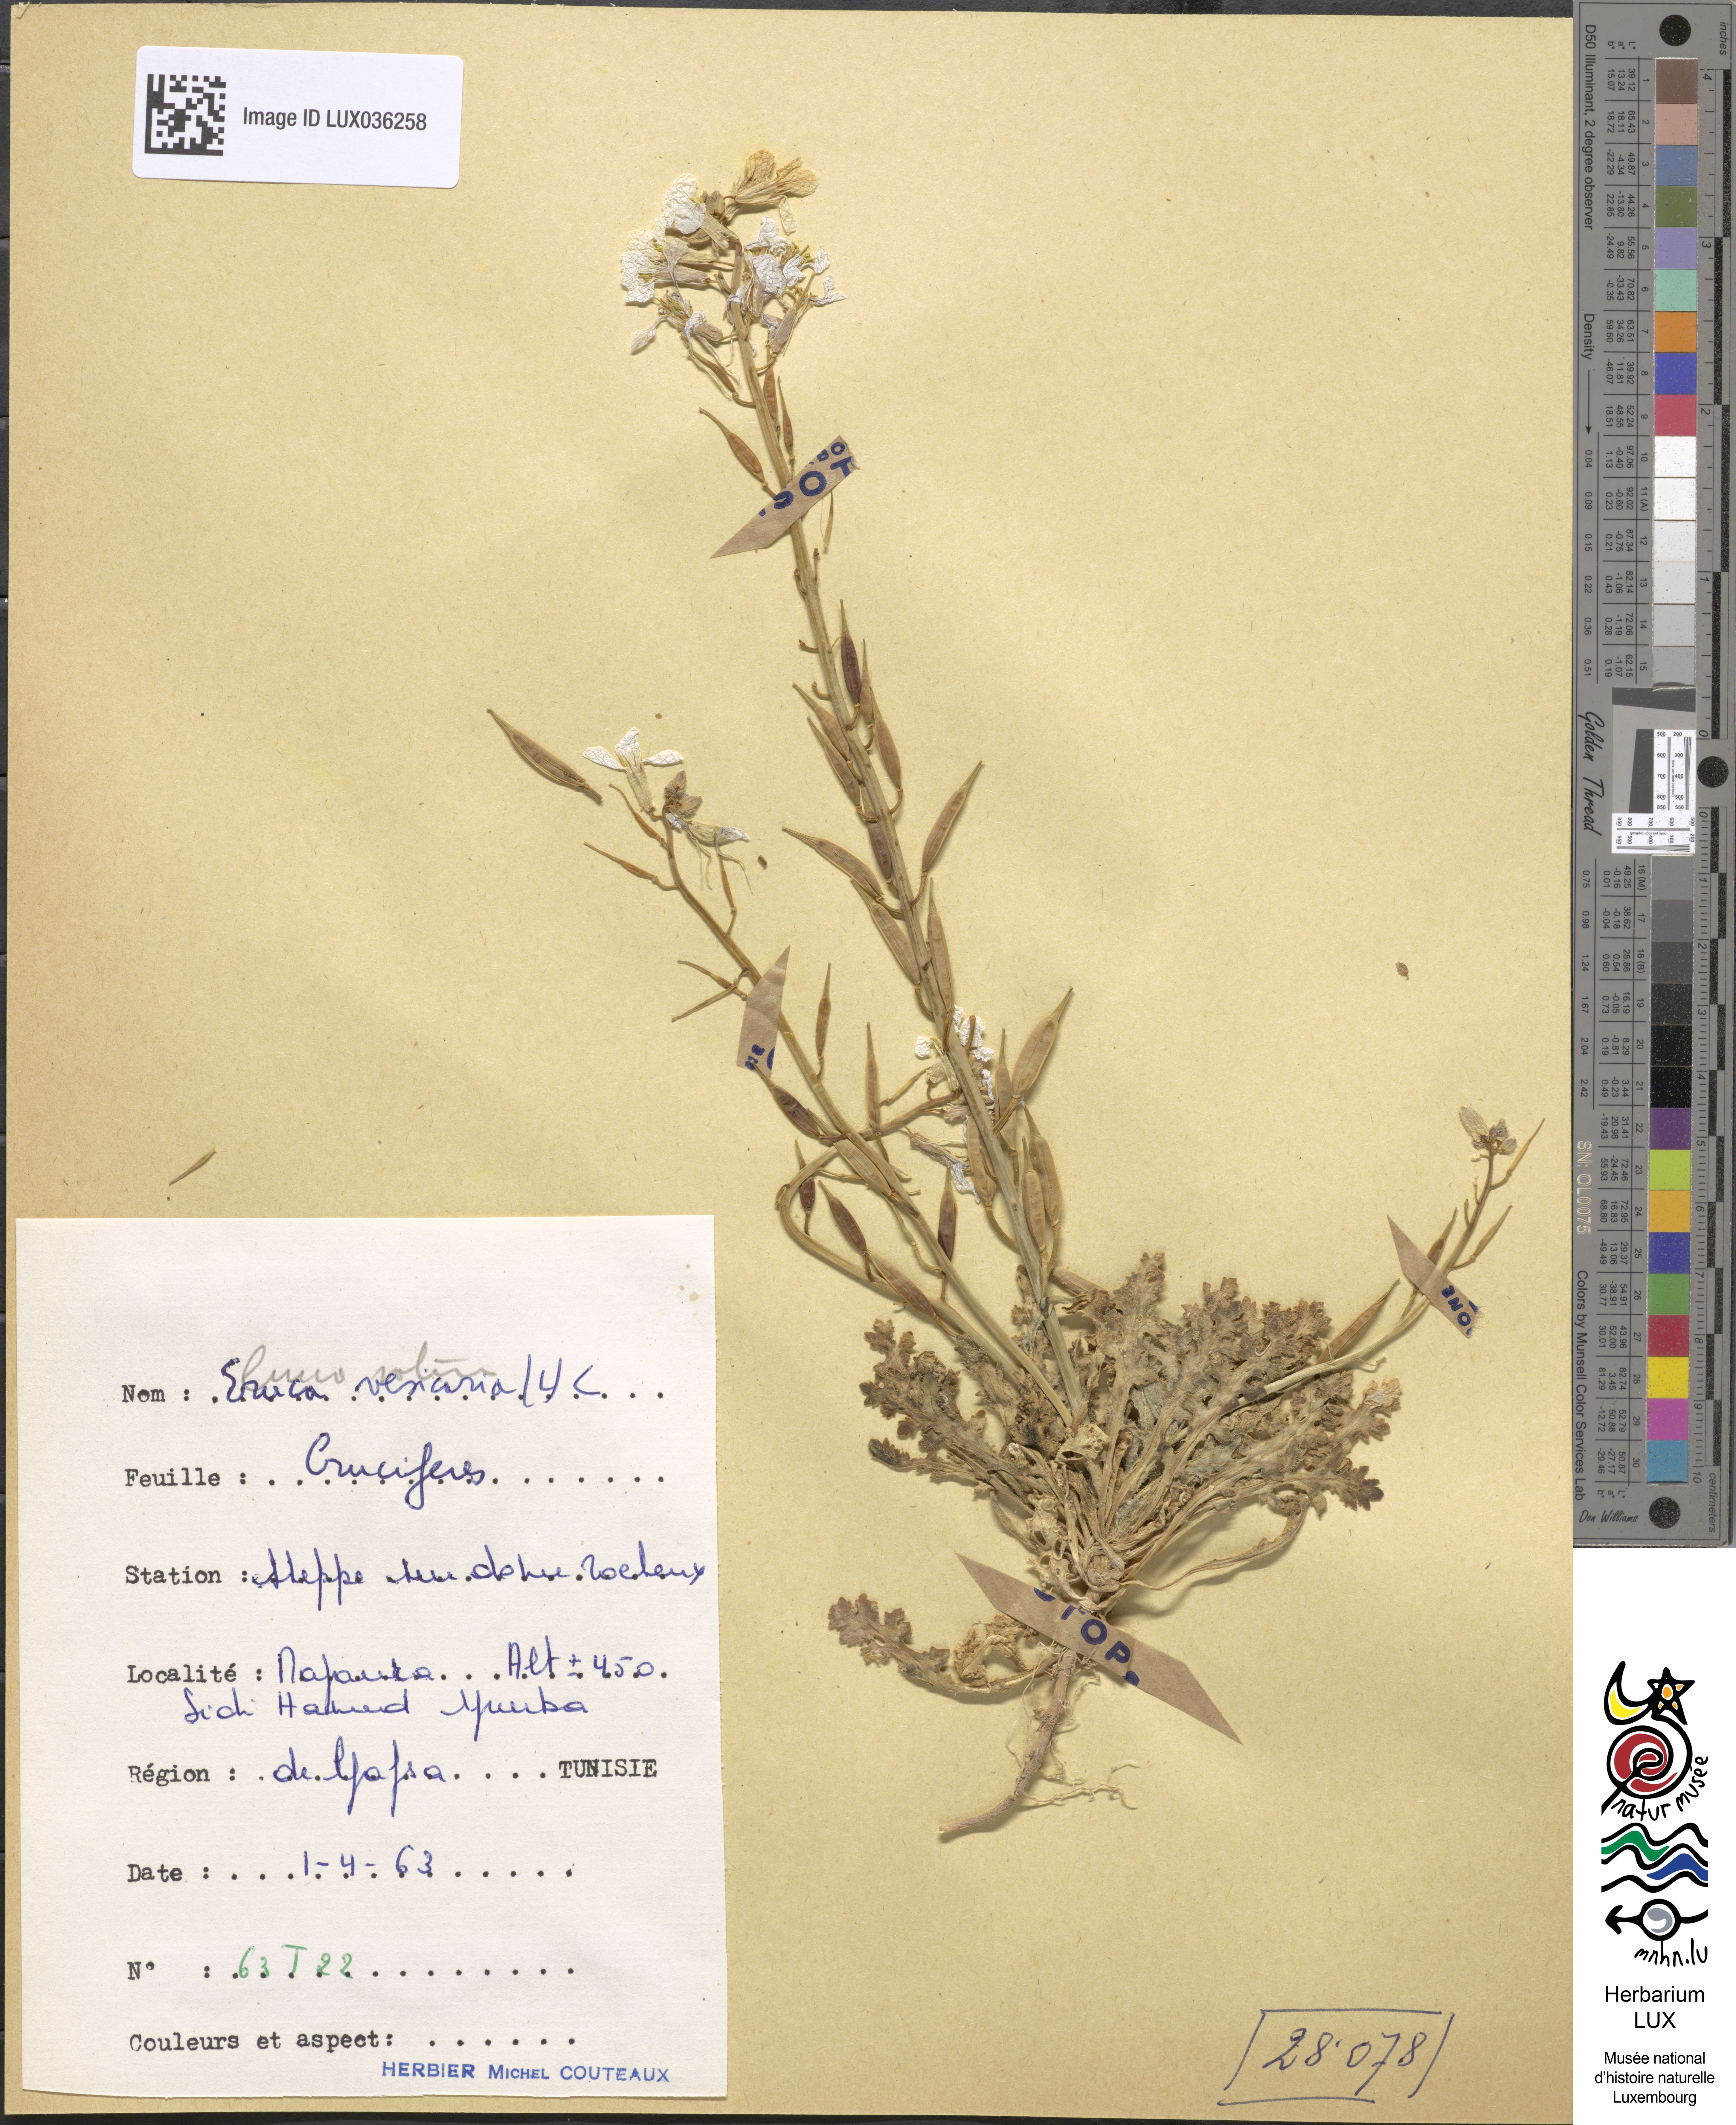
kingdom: Plantae
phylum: Tracheophyta
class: Magnoliopsida
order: Brassicales
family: Brassicaceae
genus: Eruca
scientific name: Eruca vesicaria
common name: Garden rocket
